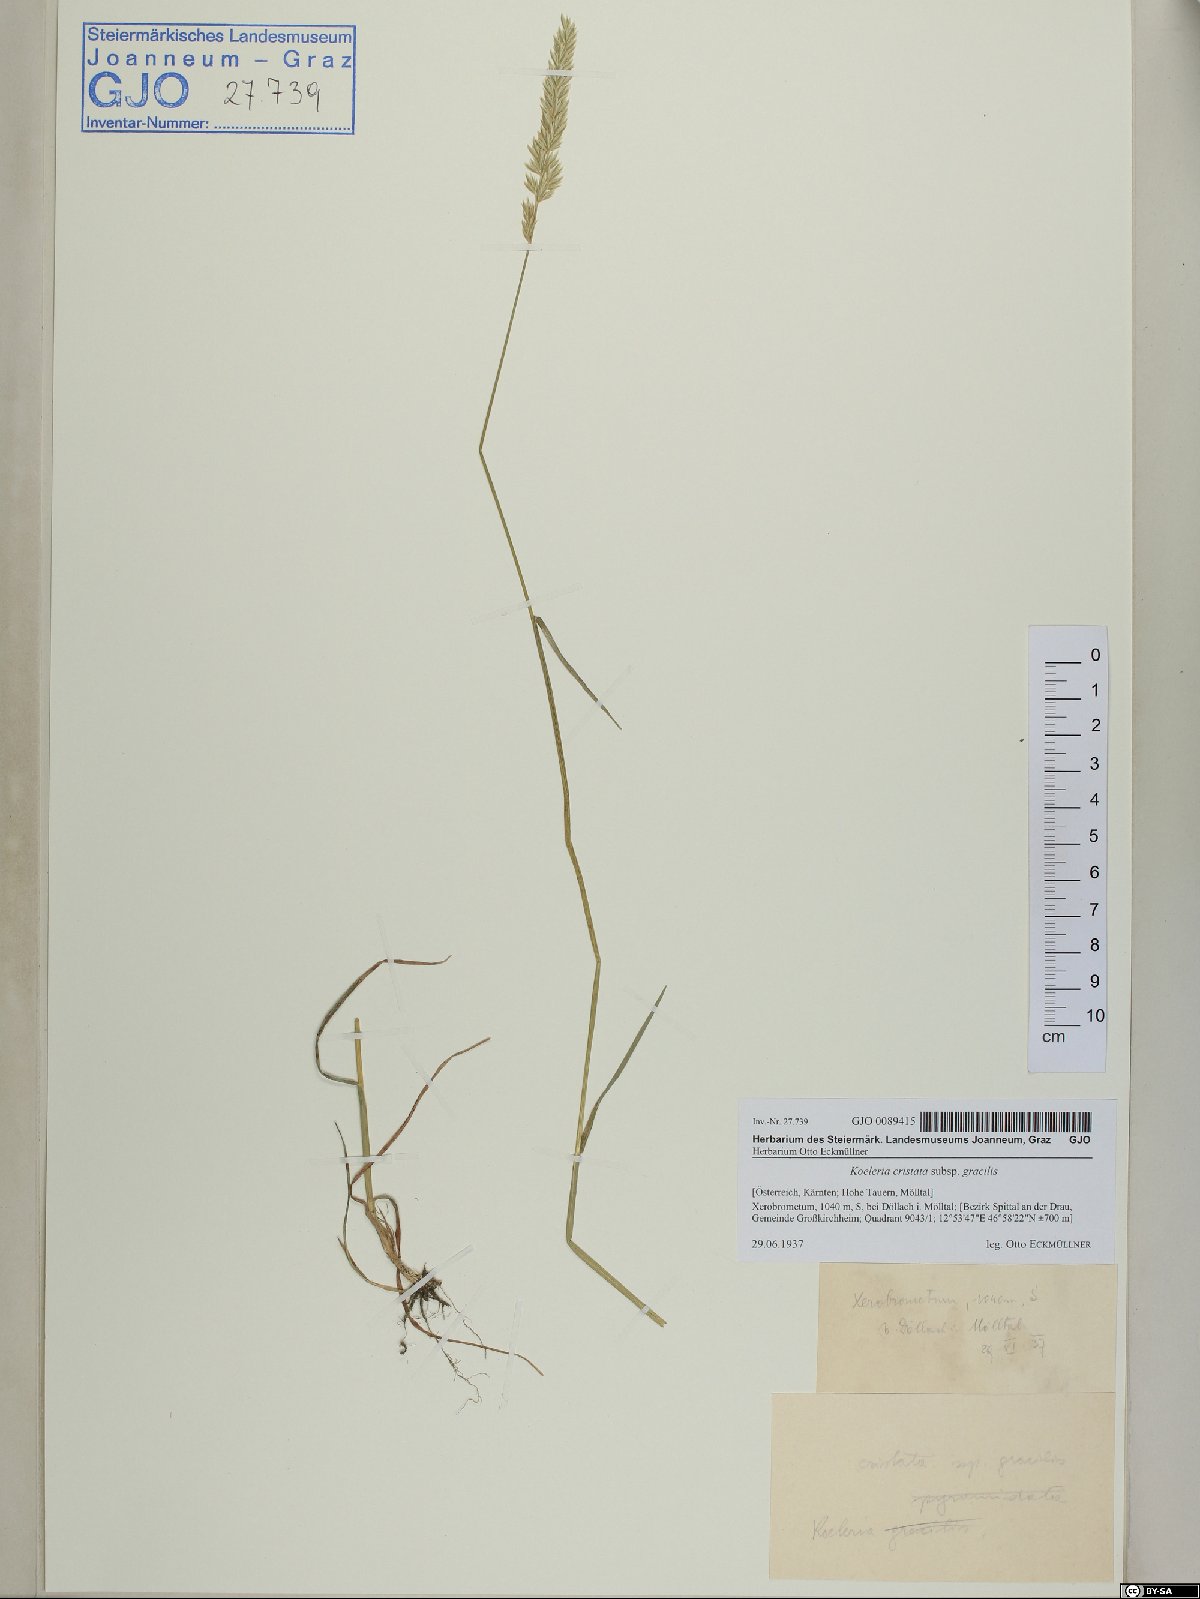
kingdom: Plantae
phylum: Tracheophyta
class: Liliopsida
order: Poales
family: Poaceae
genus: Koeleria
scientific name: Koeleria macrantha
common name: Crested hair-grass
